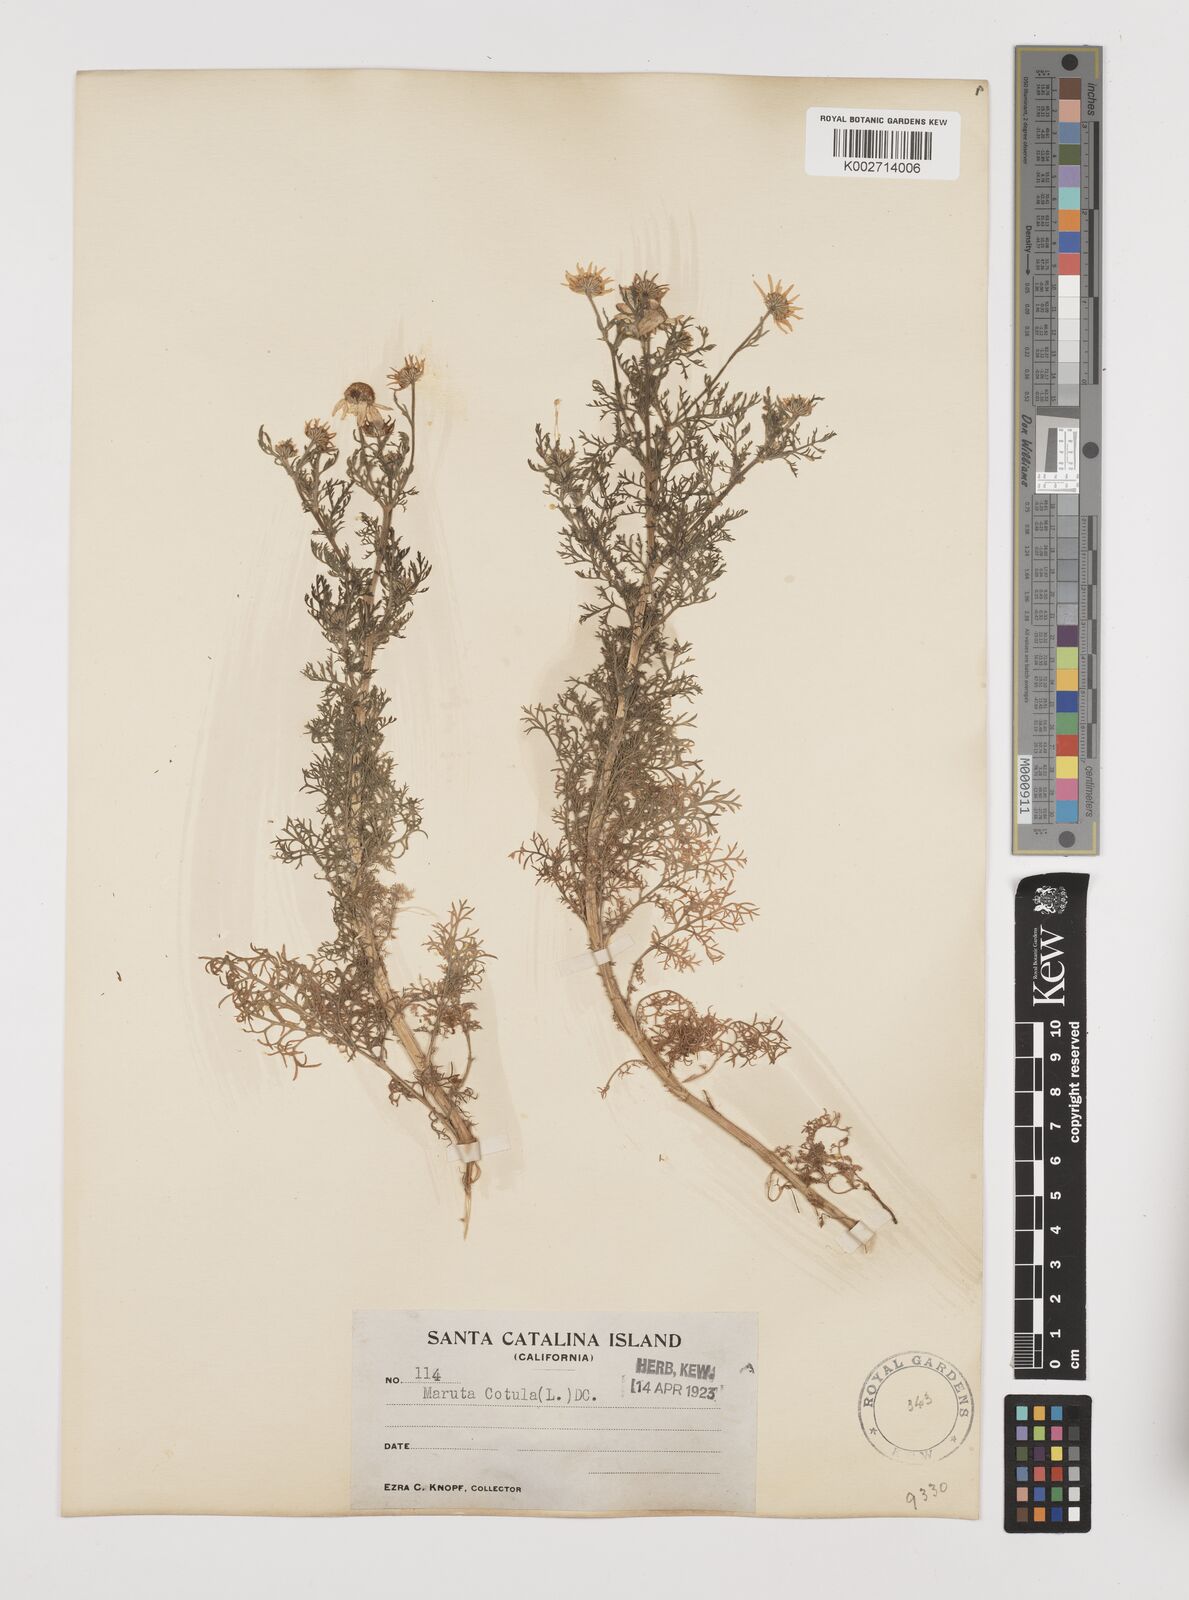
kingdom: Plantae
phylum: Tracheophyta
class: Magnoliopsida
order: Asterales
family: Asteraceae
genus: Anthemis
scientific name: Anthemis cotula
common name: Stinking chamomile
